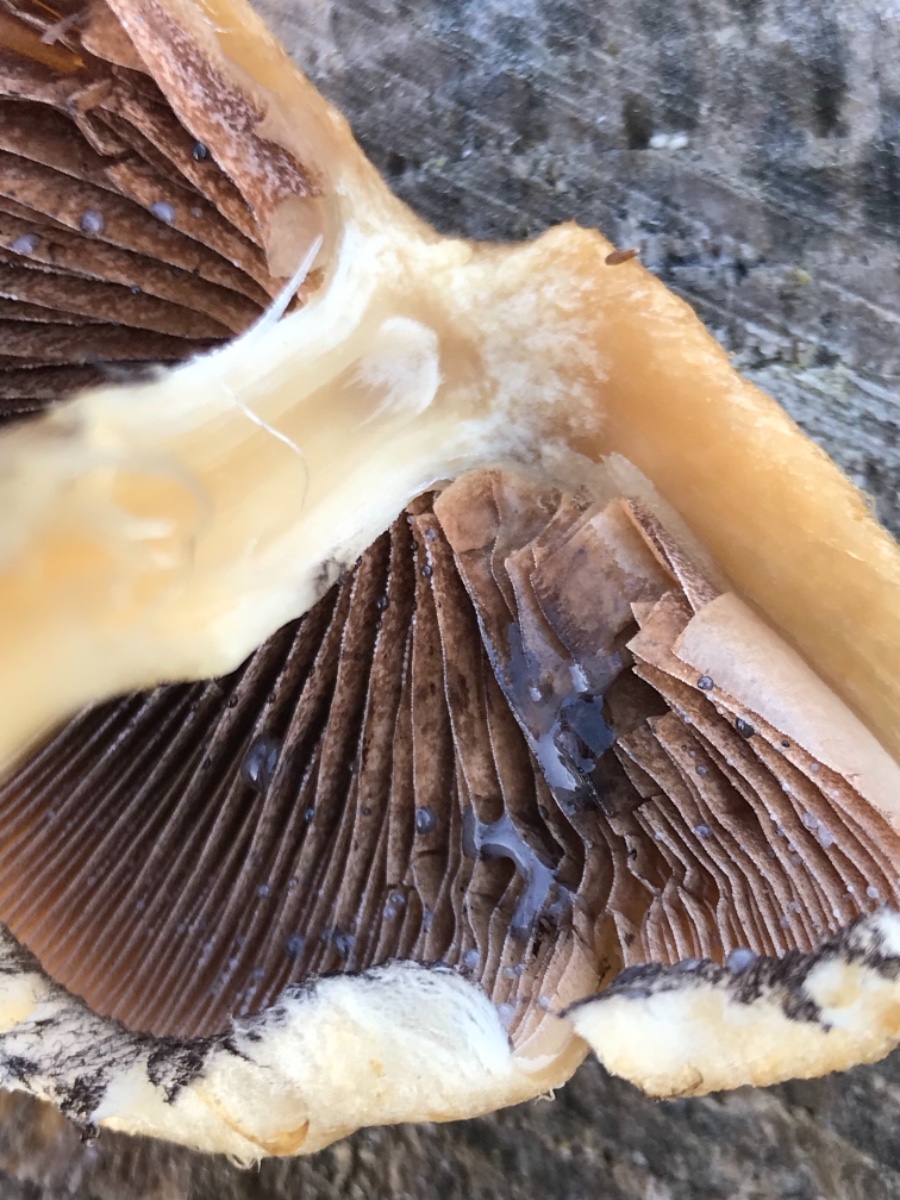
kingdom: Fungi
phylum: Basidiomycota
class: Agaricomycetes
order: Agaricales
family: Psathyrellaceae
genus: Lacrymaria
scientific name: Lacrymaria lacrymabunda
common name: grædende mørkhat
